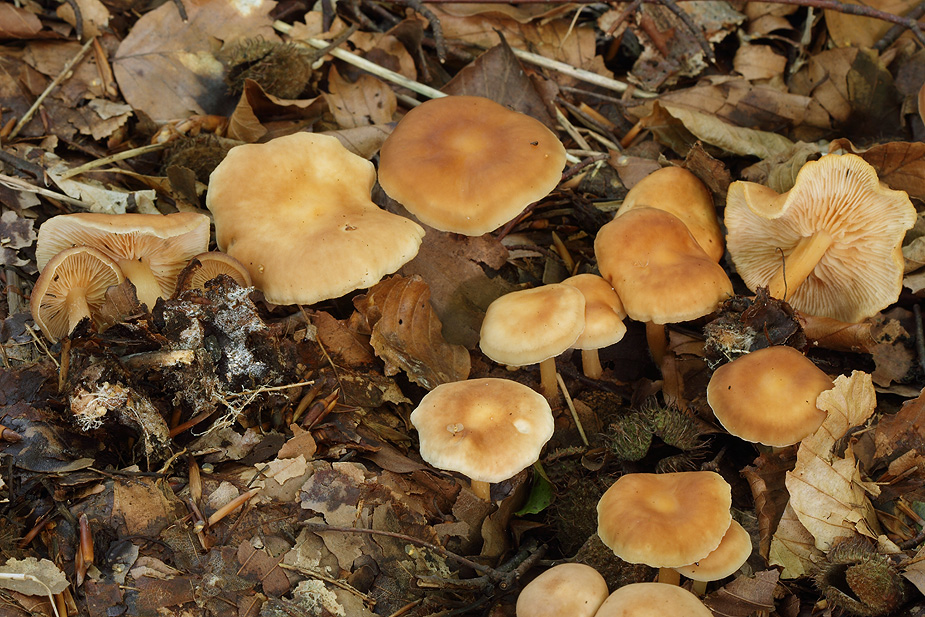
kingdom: Fungi
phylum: Basidiomycota
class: Agaricomycetes
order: Agaricales
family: Omphalotaceae
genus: Gymnopus
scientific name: Gymnopus dryophilus
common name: løv-fladhat
